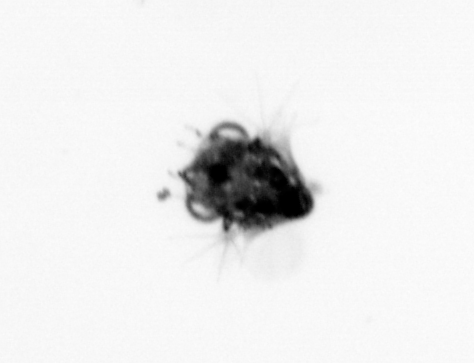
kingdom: Animalia
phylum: Arthropoda
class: Malacostraca
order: Decapoda
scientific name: Decapoda
